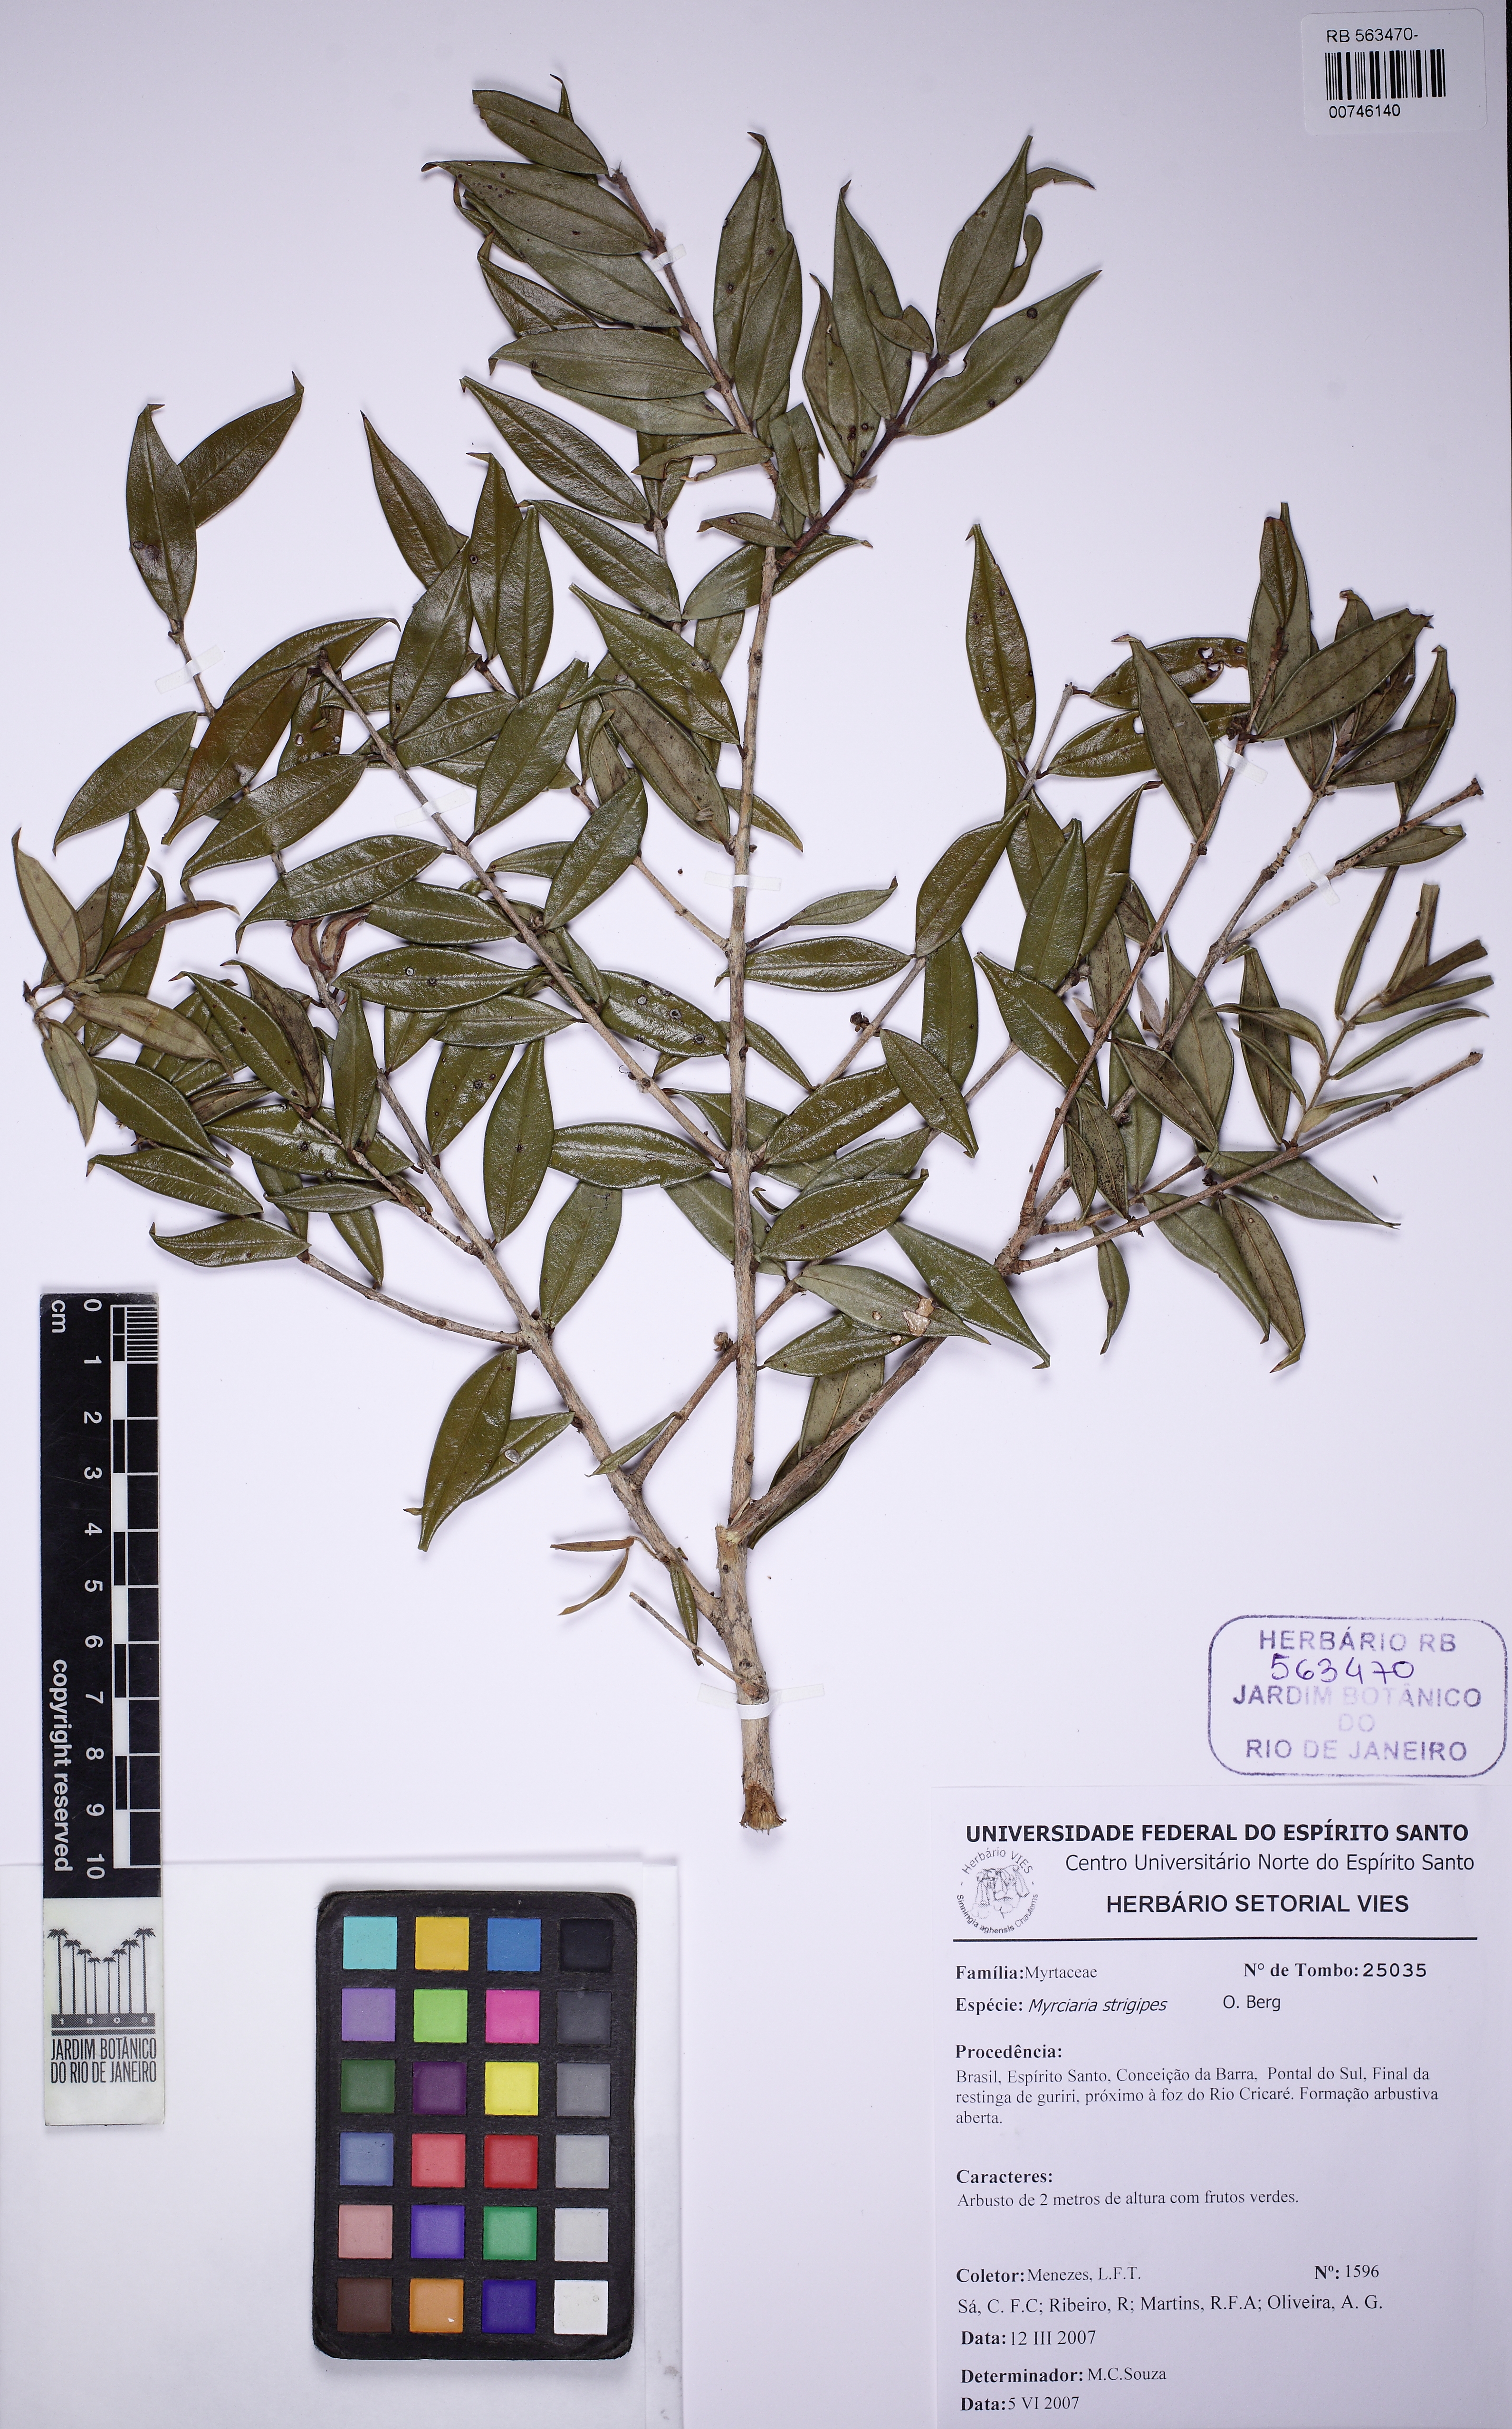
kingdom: Plantae
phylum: Tracheophyta
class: Magnoliopsida
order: Myrtales
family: Myrtaceae
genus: Myrciaria
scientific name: Myrciaria strigipes
